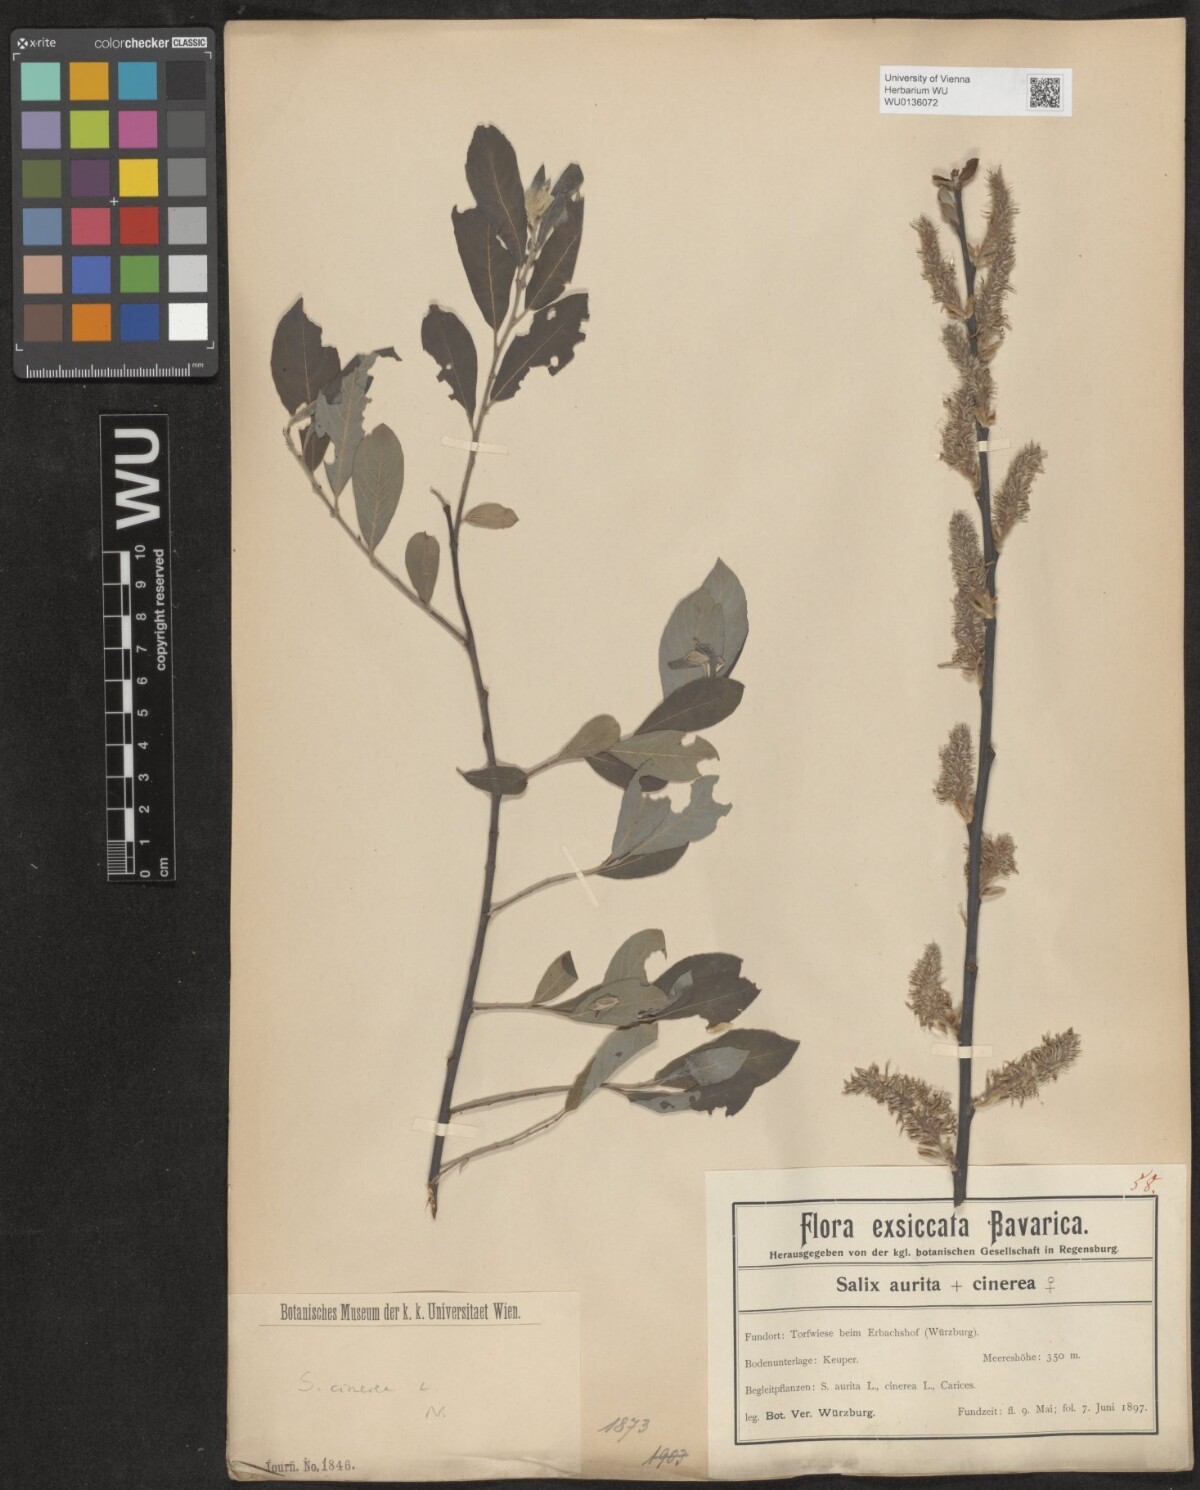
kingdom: Plantae
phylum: Tracheophyta
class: Magnoliopsida
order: Malpighiales
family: Salicaceae
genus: Salix
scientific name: Salix cinerea
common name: Common sallow
